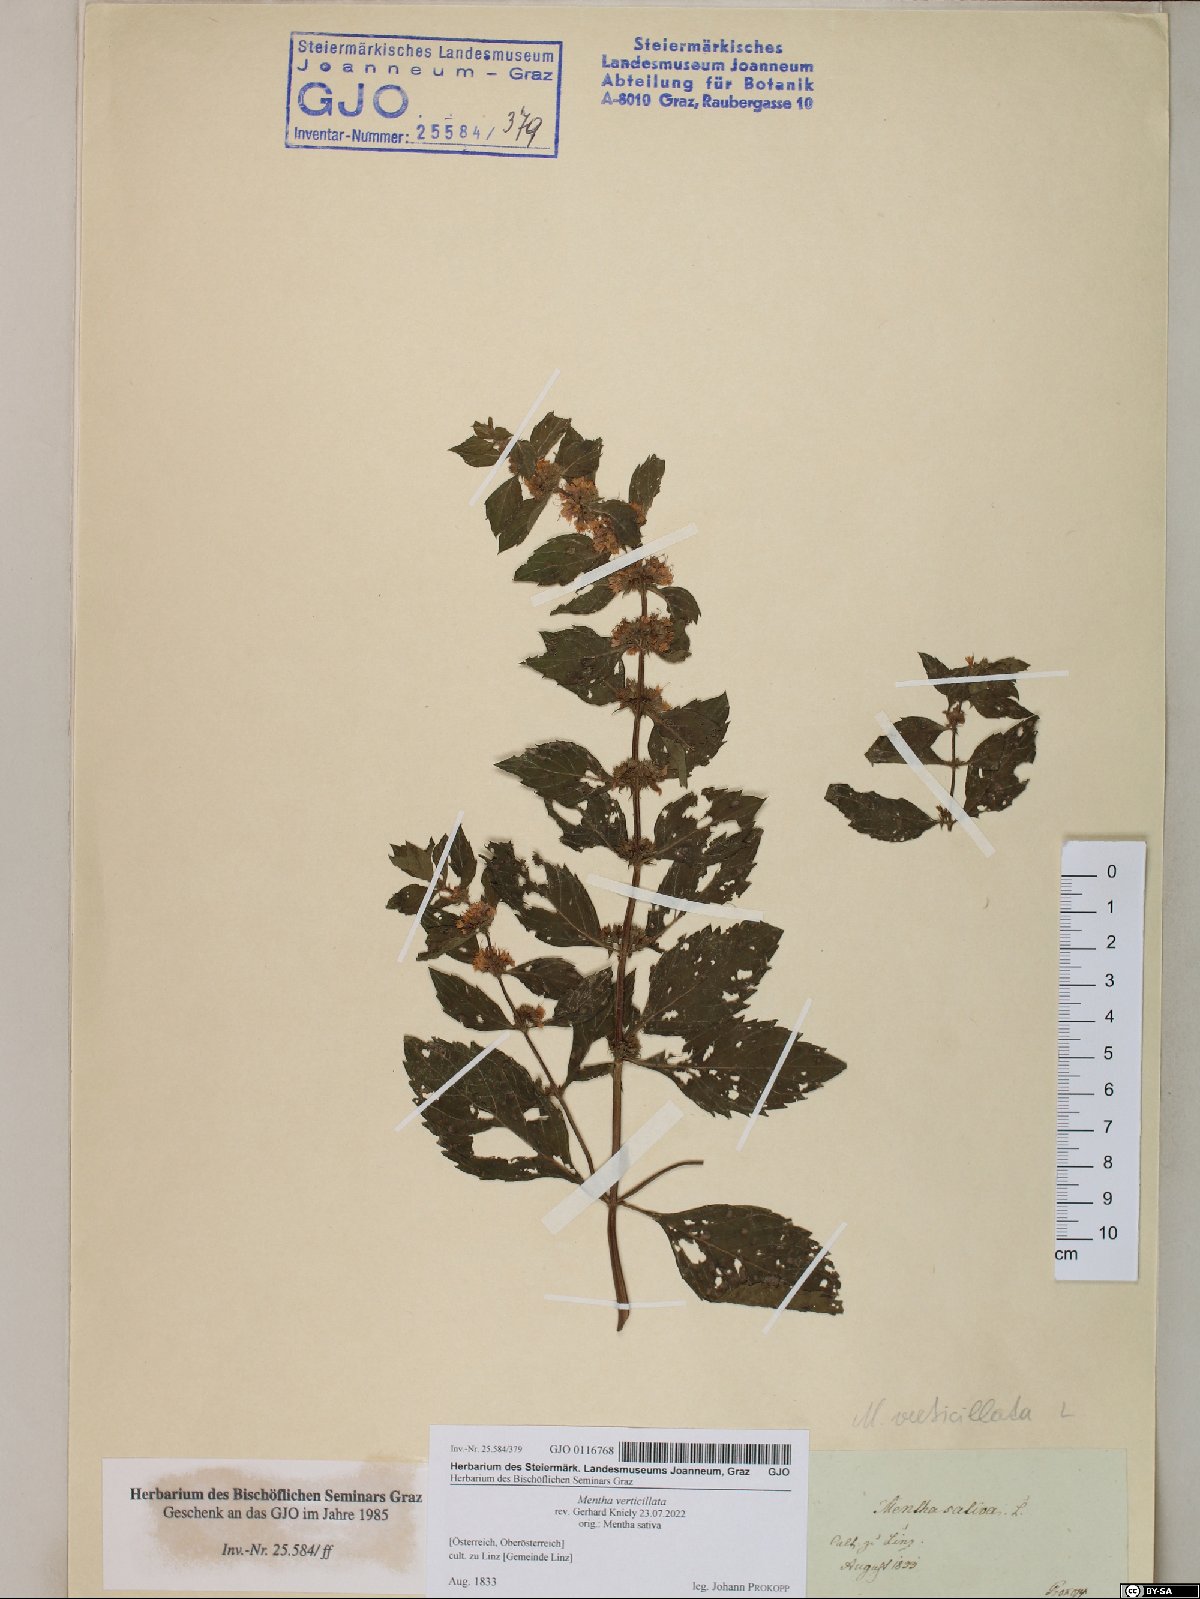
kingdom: Plantae
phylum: Tracheophyta
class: Magnoliopsida
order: Lamiales
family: Lamiaceae
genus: Mentha
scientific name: Mentha verticillata
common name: Mint
